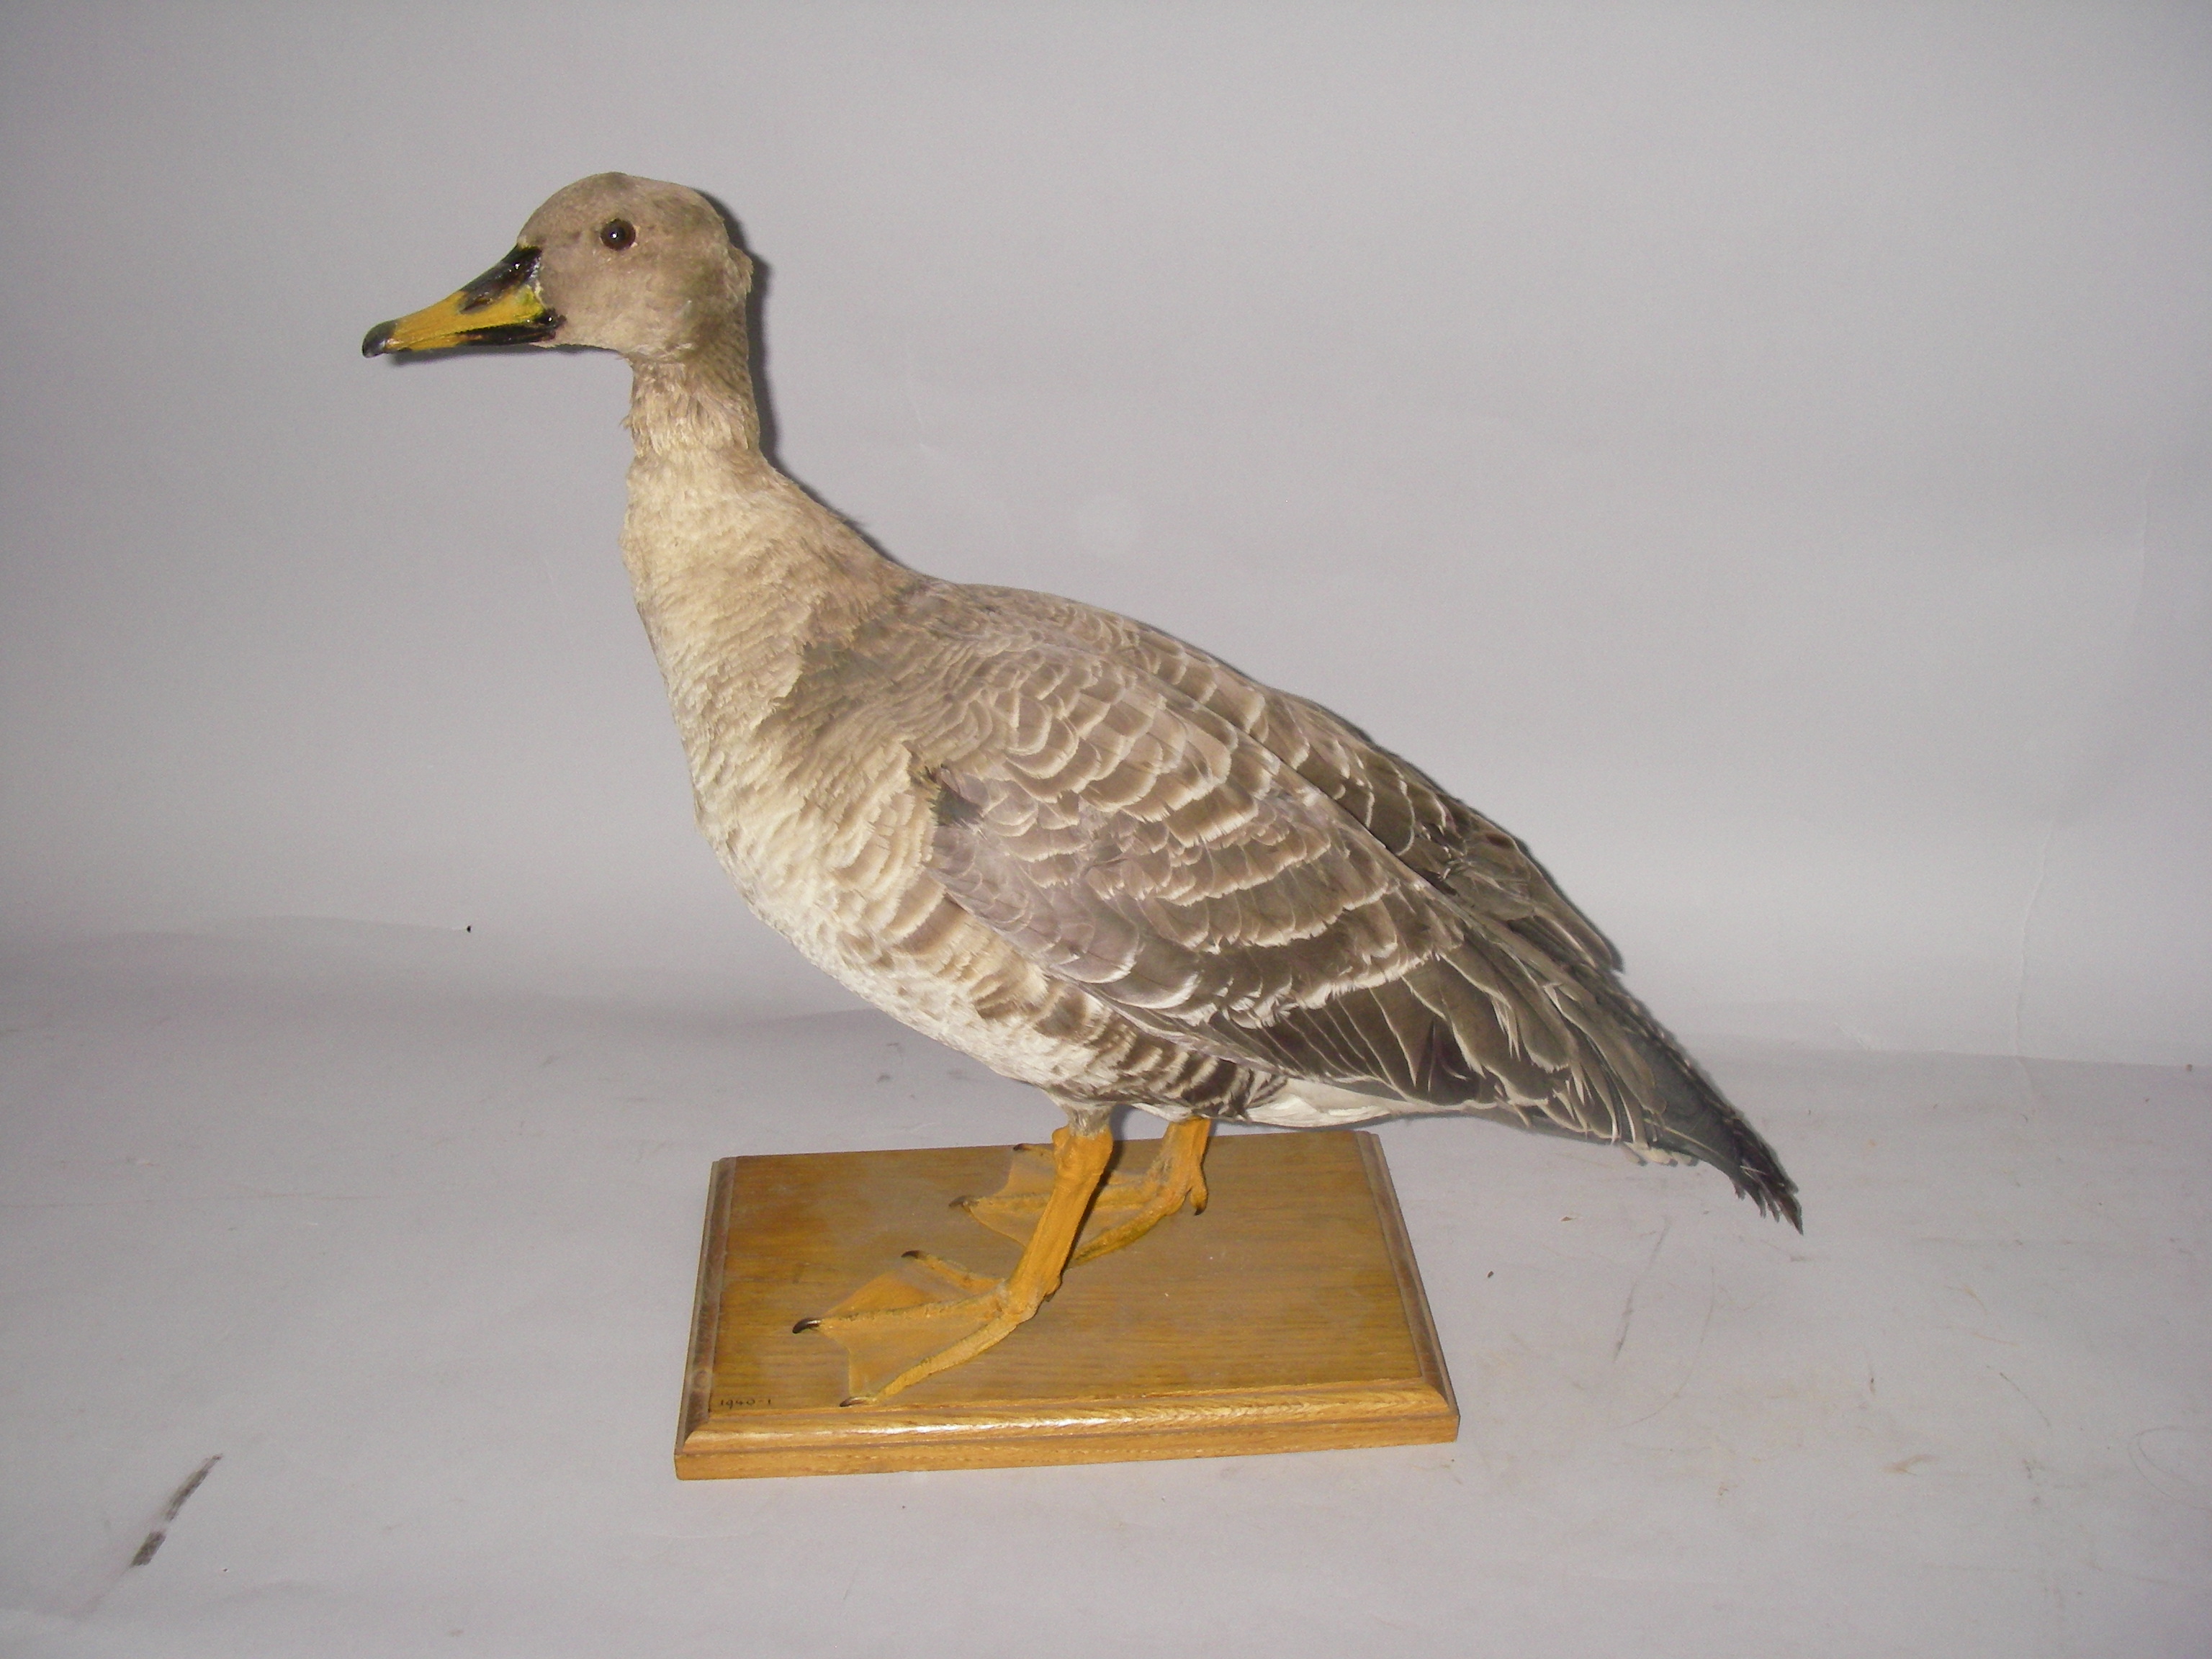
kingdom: Animalia
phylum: Chordata
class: Aves
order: Anseriformes
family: Anatidae
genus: Anser
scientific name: Anser fabalis
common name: Bean goose
